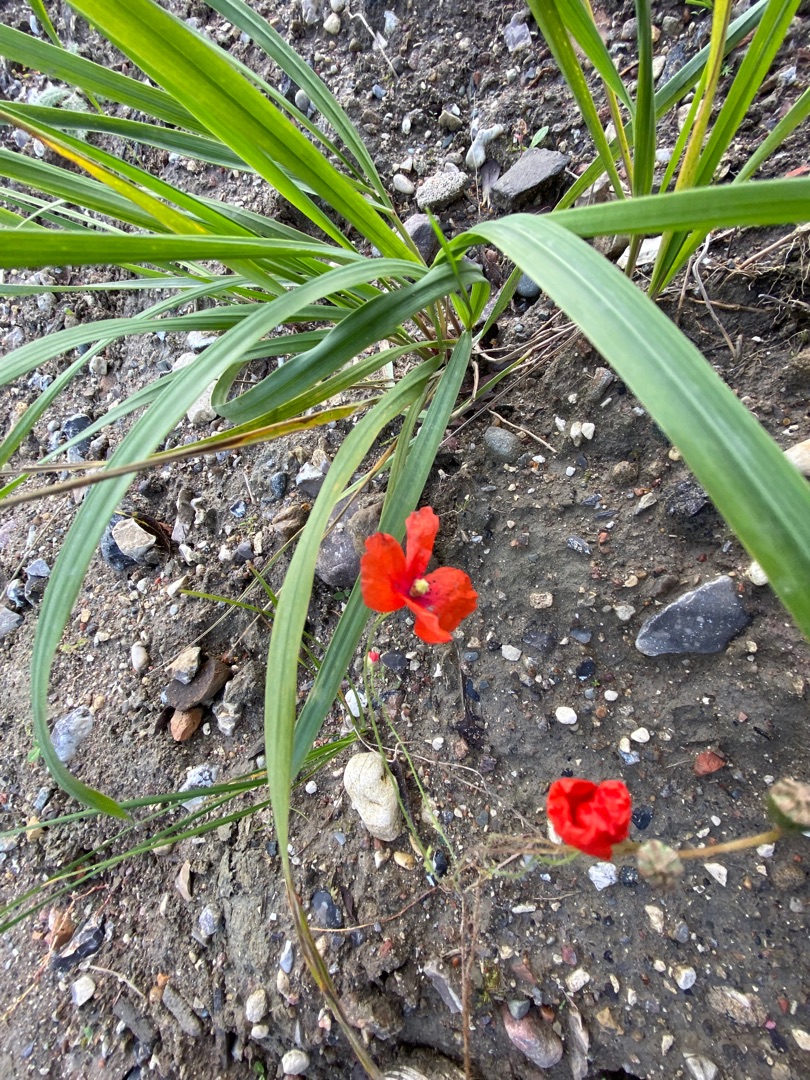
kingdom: Plantae
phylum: Tracheophyta
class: Magnoliopsida
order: Ranunculales
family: Papaveraceae
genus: Papaver
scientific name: Papaver rhoeas
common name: Korn-valmue
